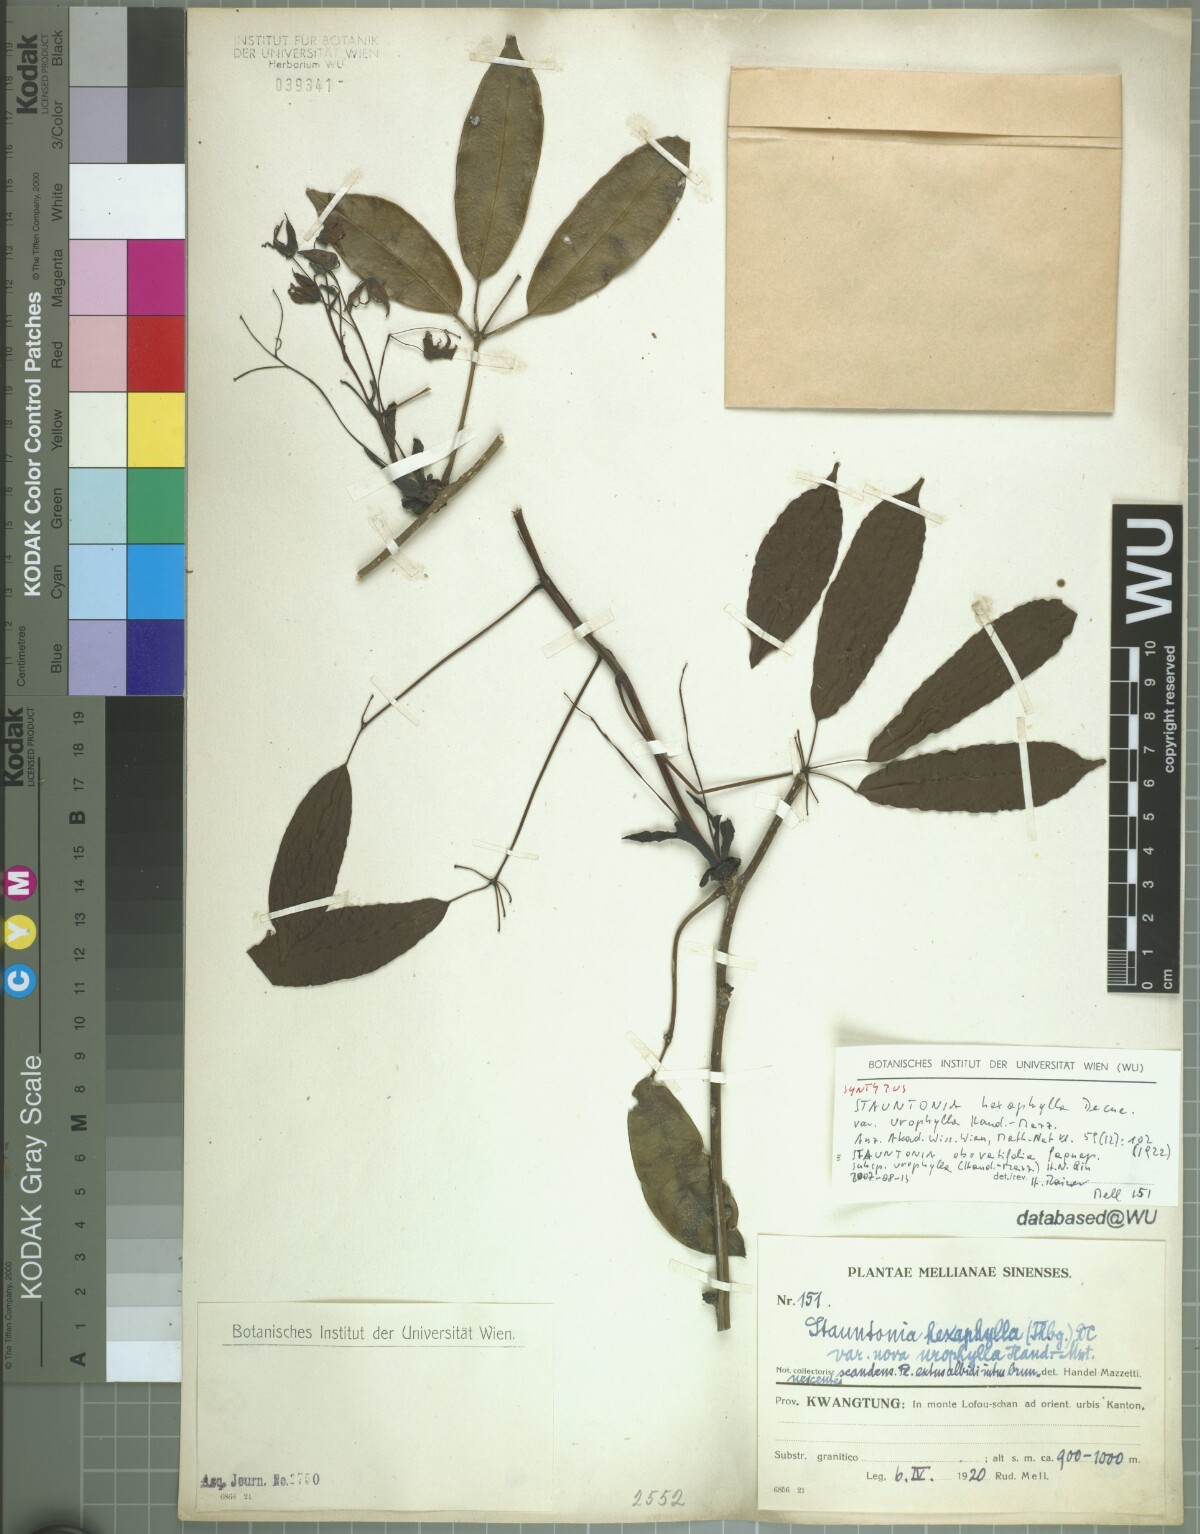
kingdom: Plantae
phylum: Tracheophyta
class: Magnoliopsida
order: Ranunculales
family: Lardizabalaceae
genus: Stauntonia
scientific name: Stauntonia yaoshanensis
